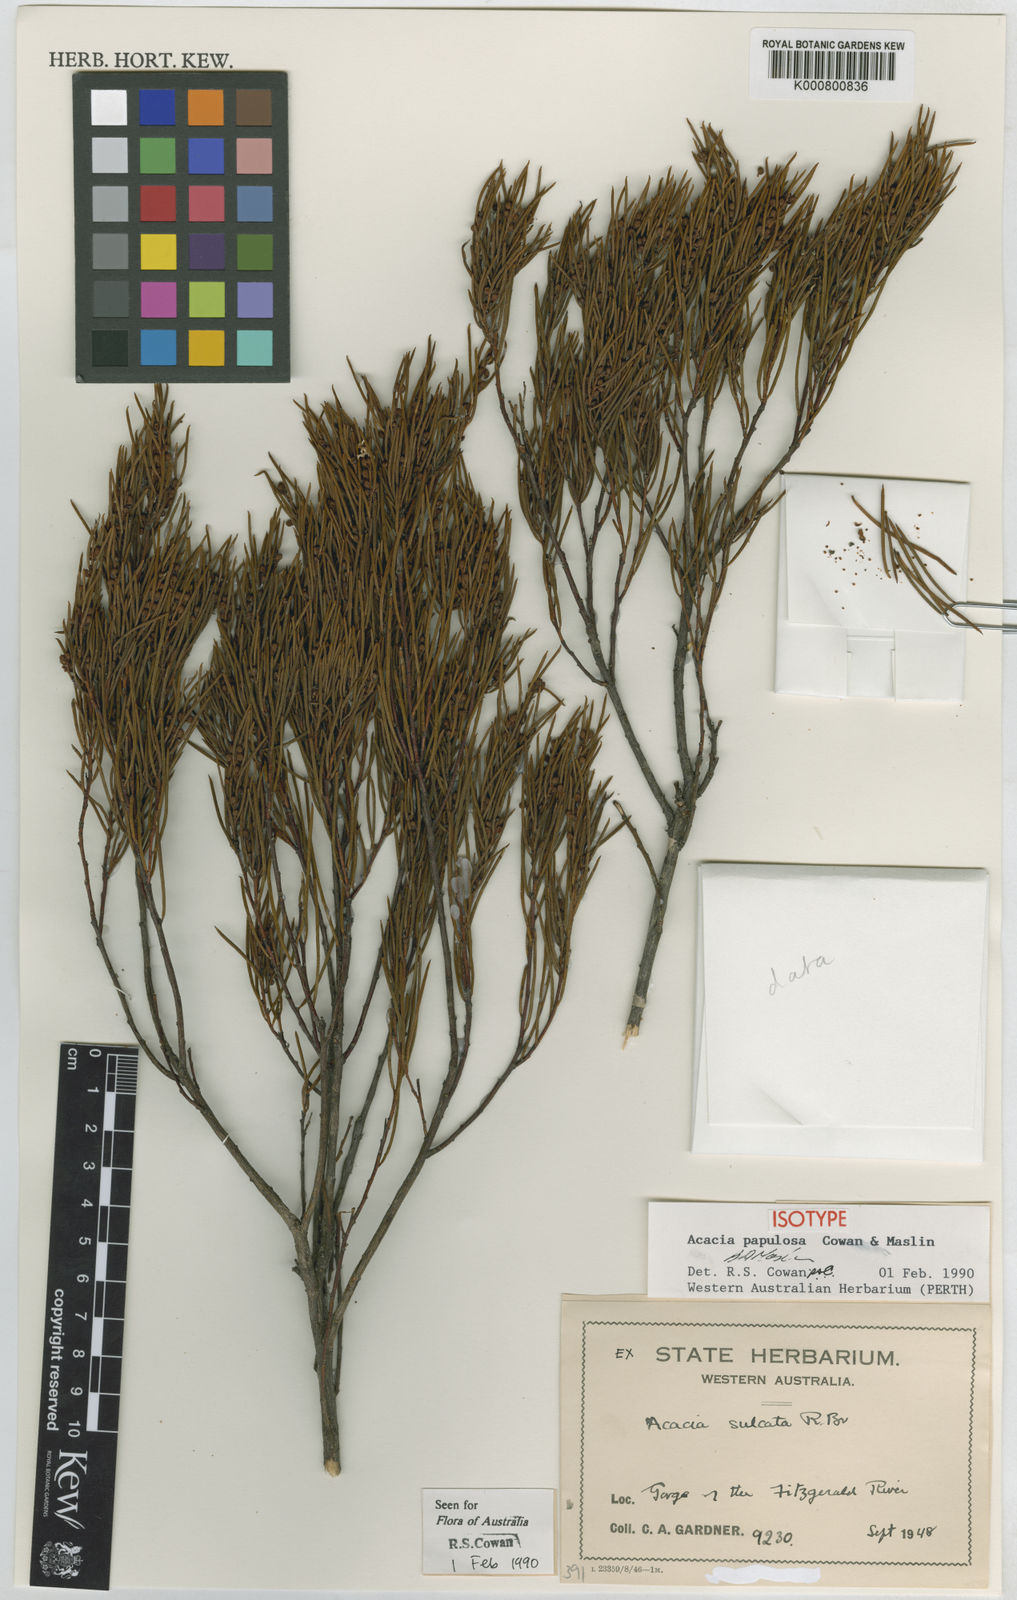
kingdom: Plantae
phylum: Tracheophyta
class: Magnoliopsida
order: Fabales
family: Fabaceae
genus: Acacia
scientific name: Acacia papulosa
